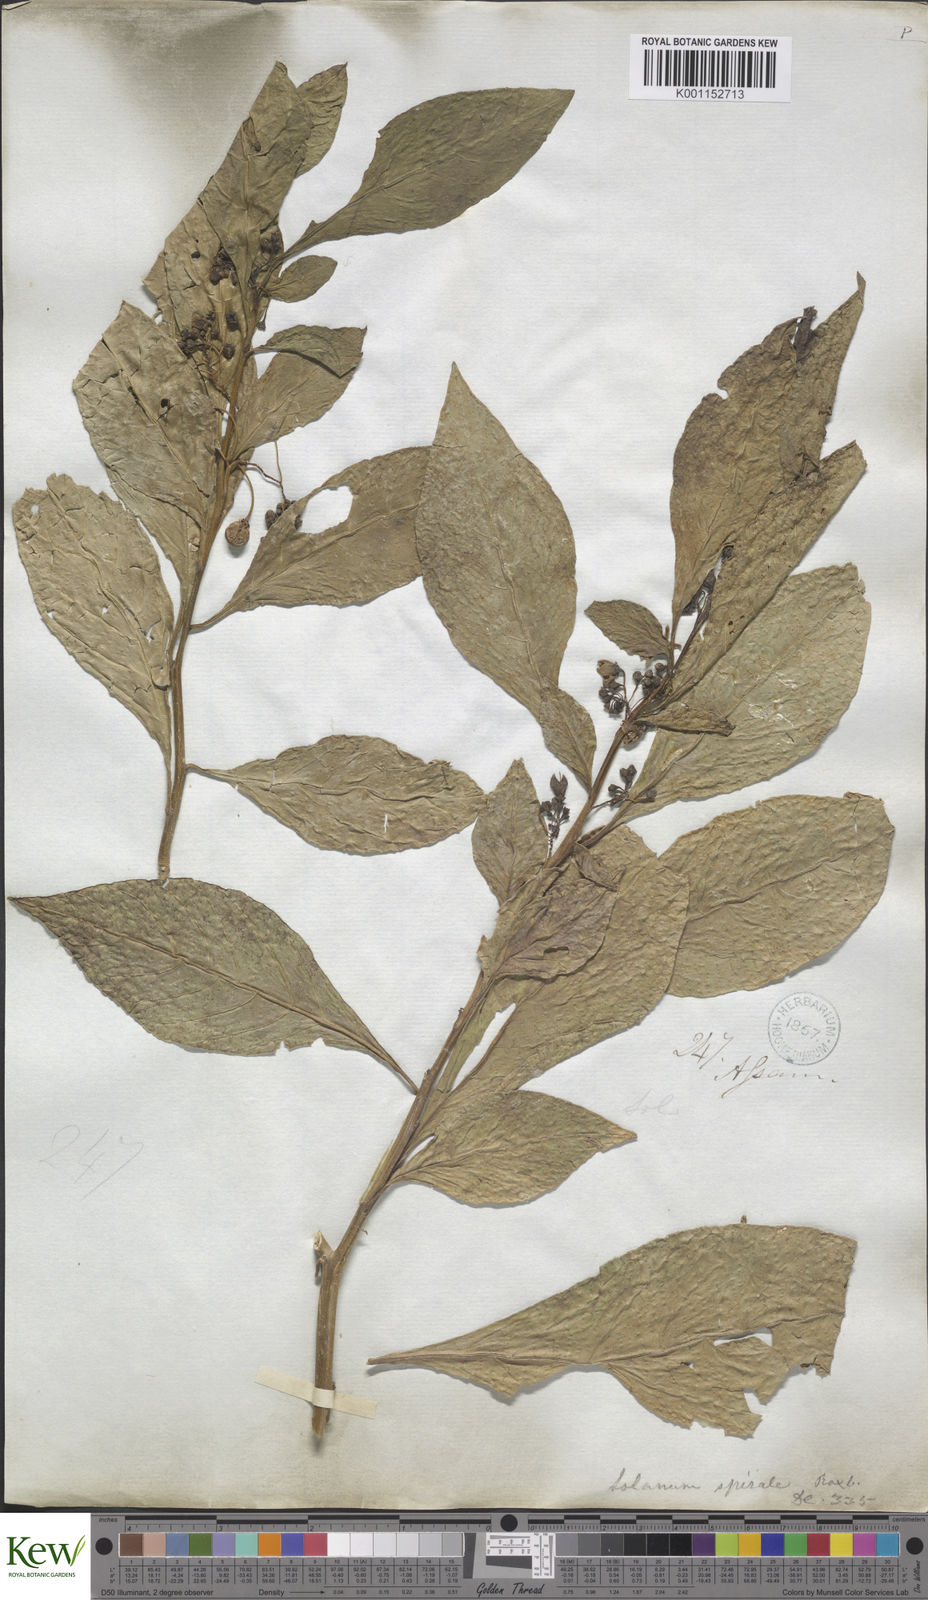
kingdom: Plantae
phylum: Tracheophyta
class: Magnoliopsida
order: Solanales
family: Solanaceae
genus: Solanum
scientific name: Solanum spirale
